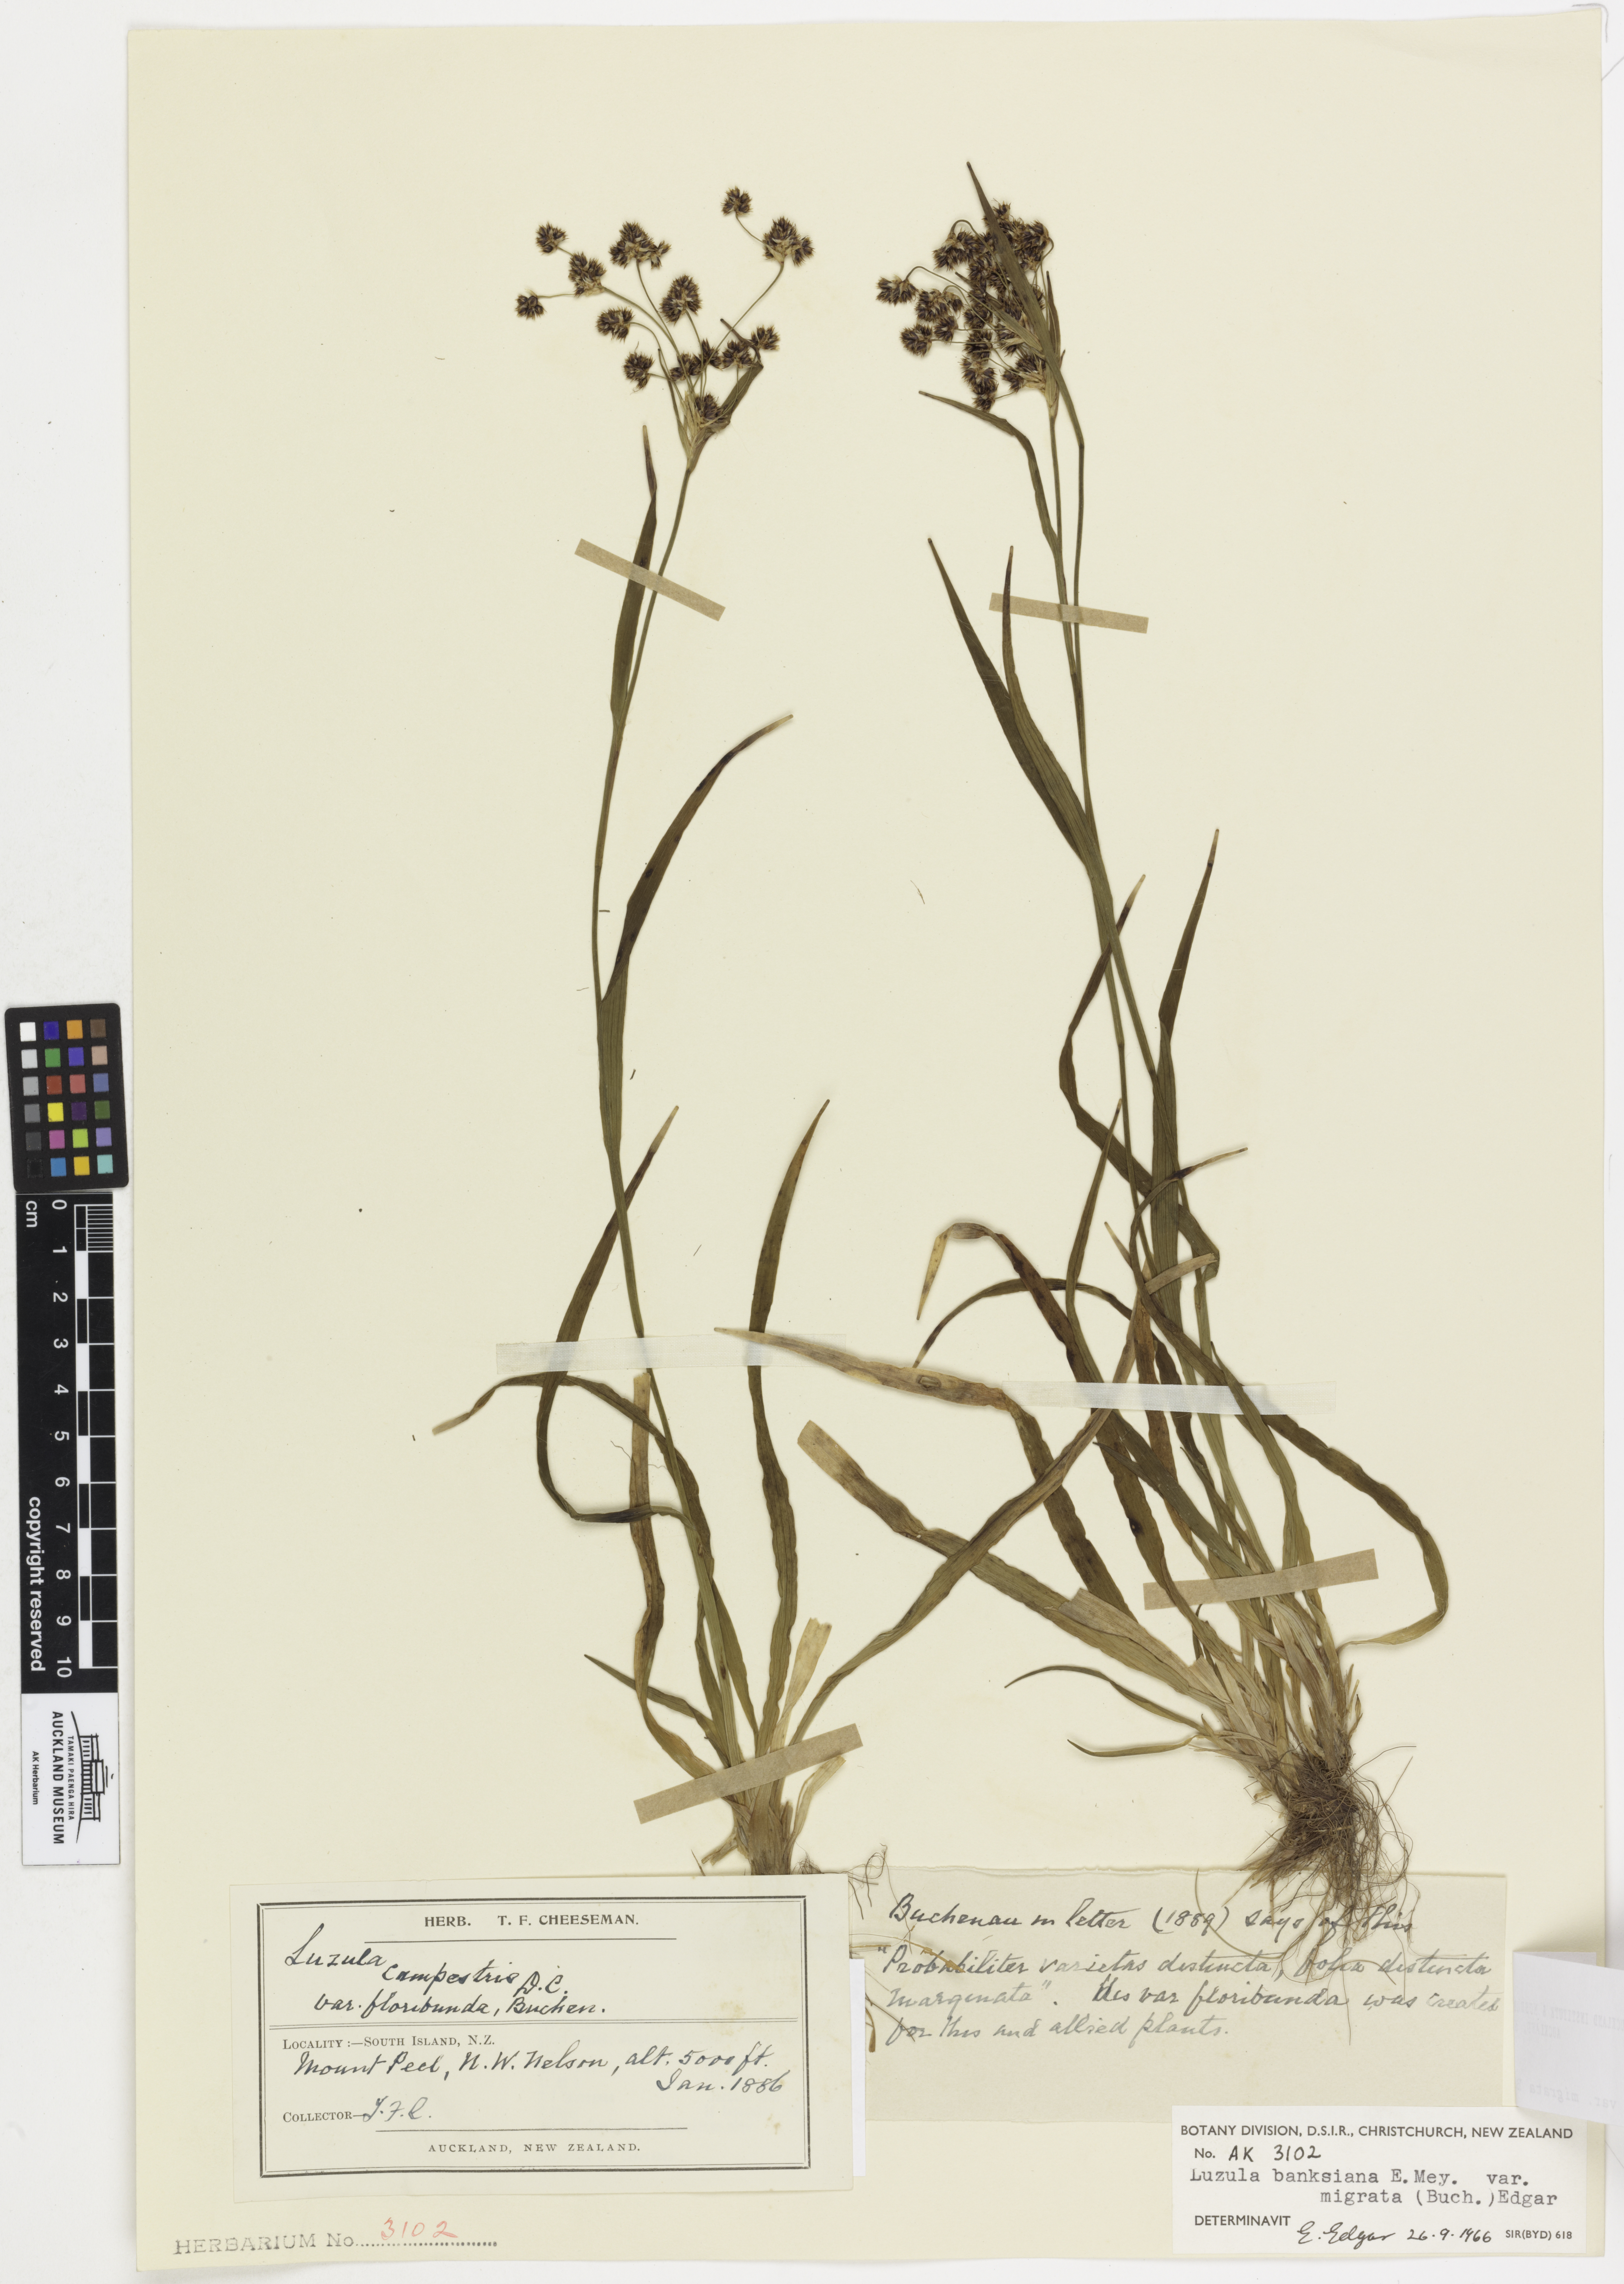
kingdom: Plantae
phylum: Tracheophyta
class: Liliopsida
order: Poales
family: Juncaceae
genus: Luzula
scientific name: Luzula banksiana
